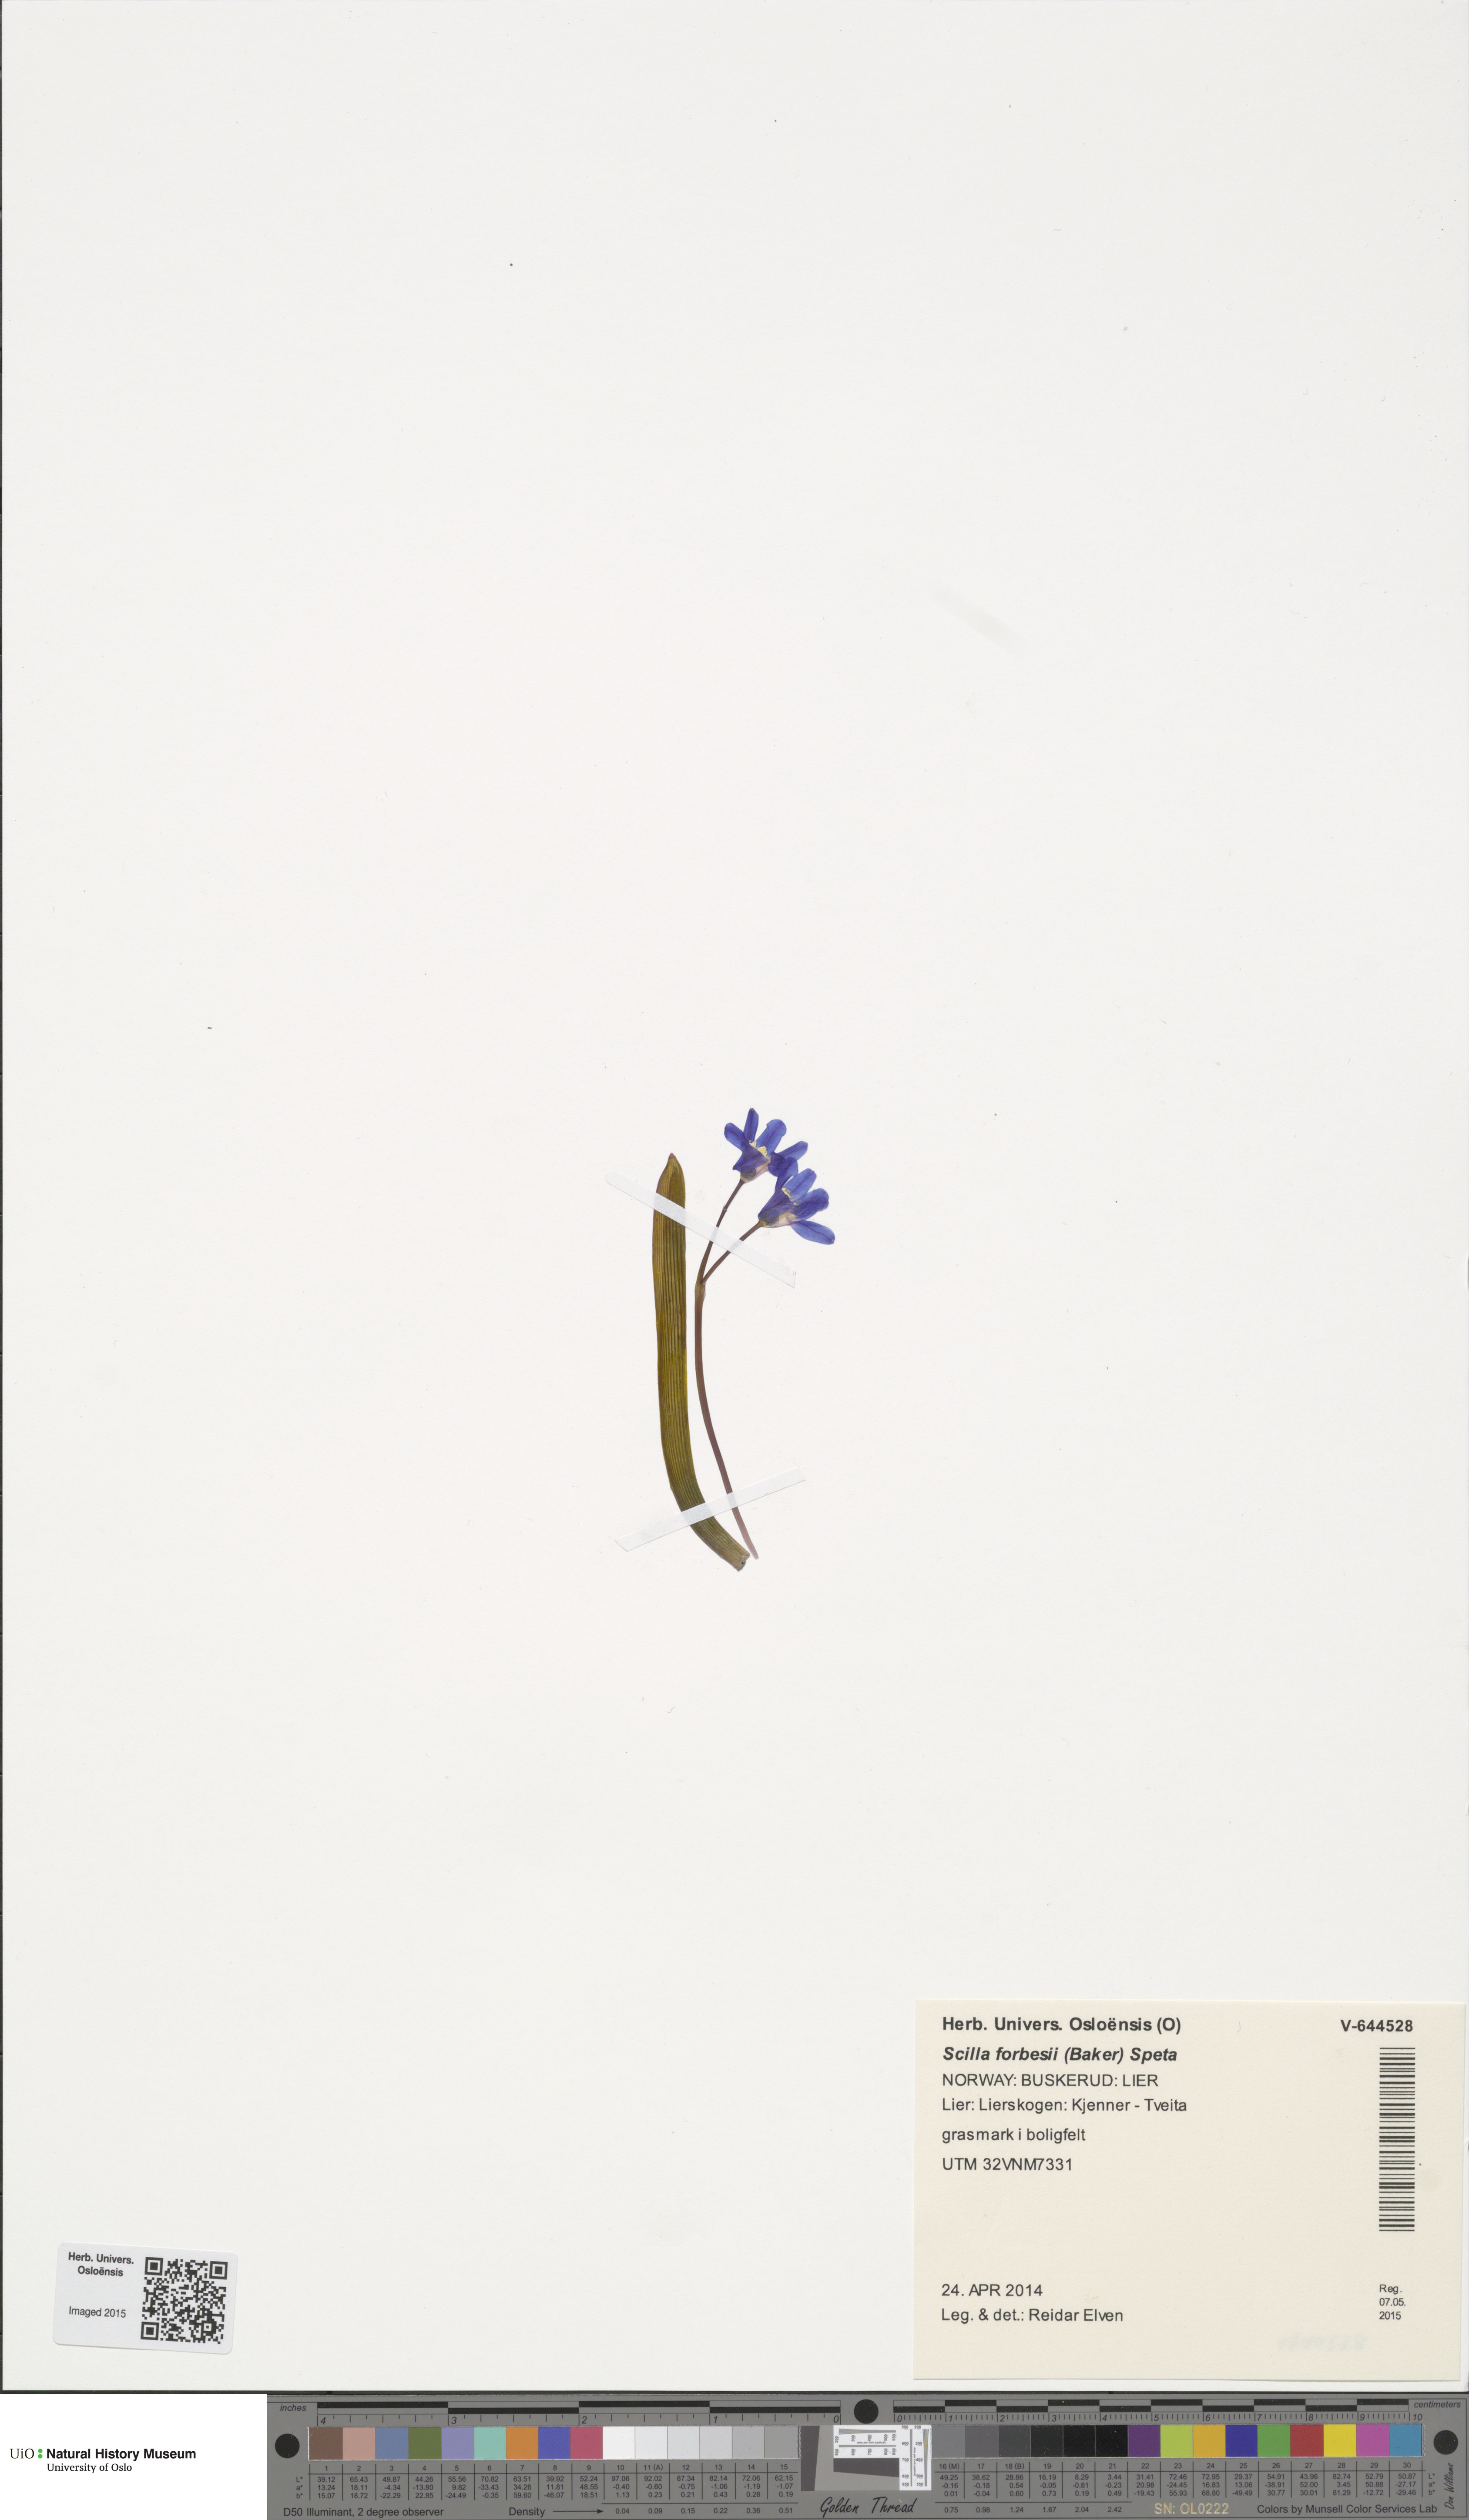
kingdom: Plantae
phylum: Tracheophyta
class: Liliopsida
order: Asparagales
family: Asparagaceae
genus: Scilla
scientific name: Scilla forbesii
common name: Glory-of-the-snow
